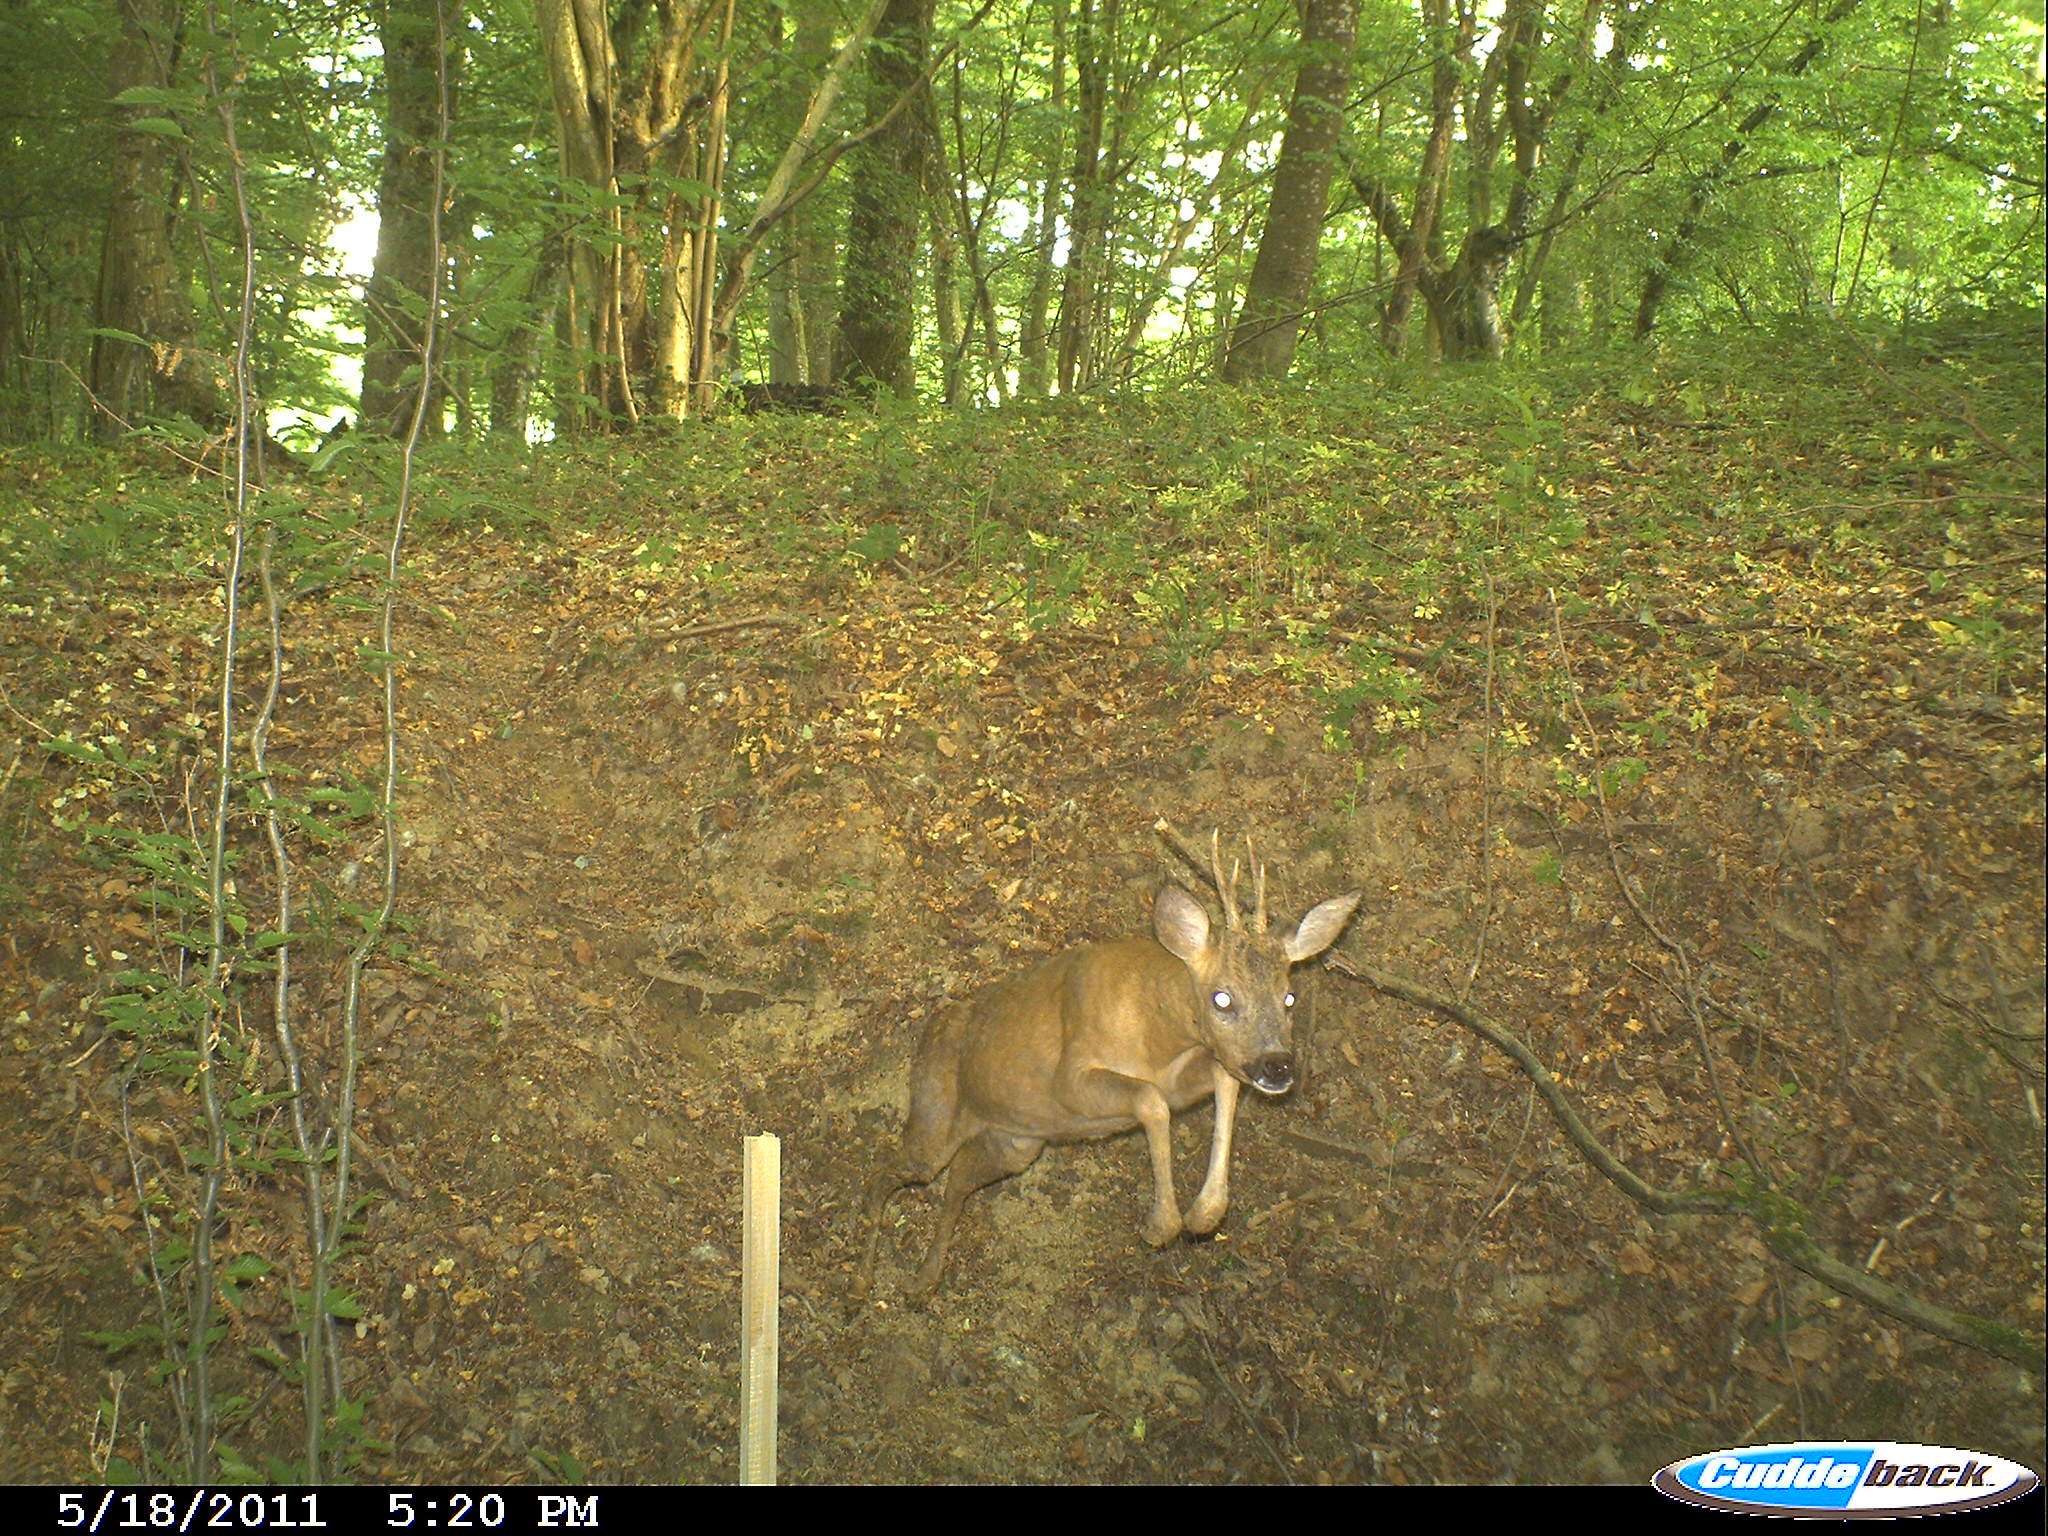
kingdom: Animalia
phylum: Chordata
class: Mammalia
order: Artiodactyla
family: Cervidae
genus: Capreolus
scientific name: Capreolus capreolus
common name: Western roe deer
